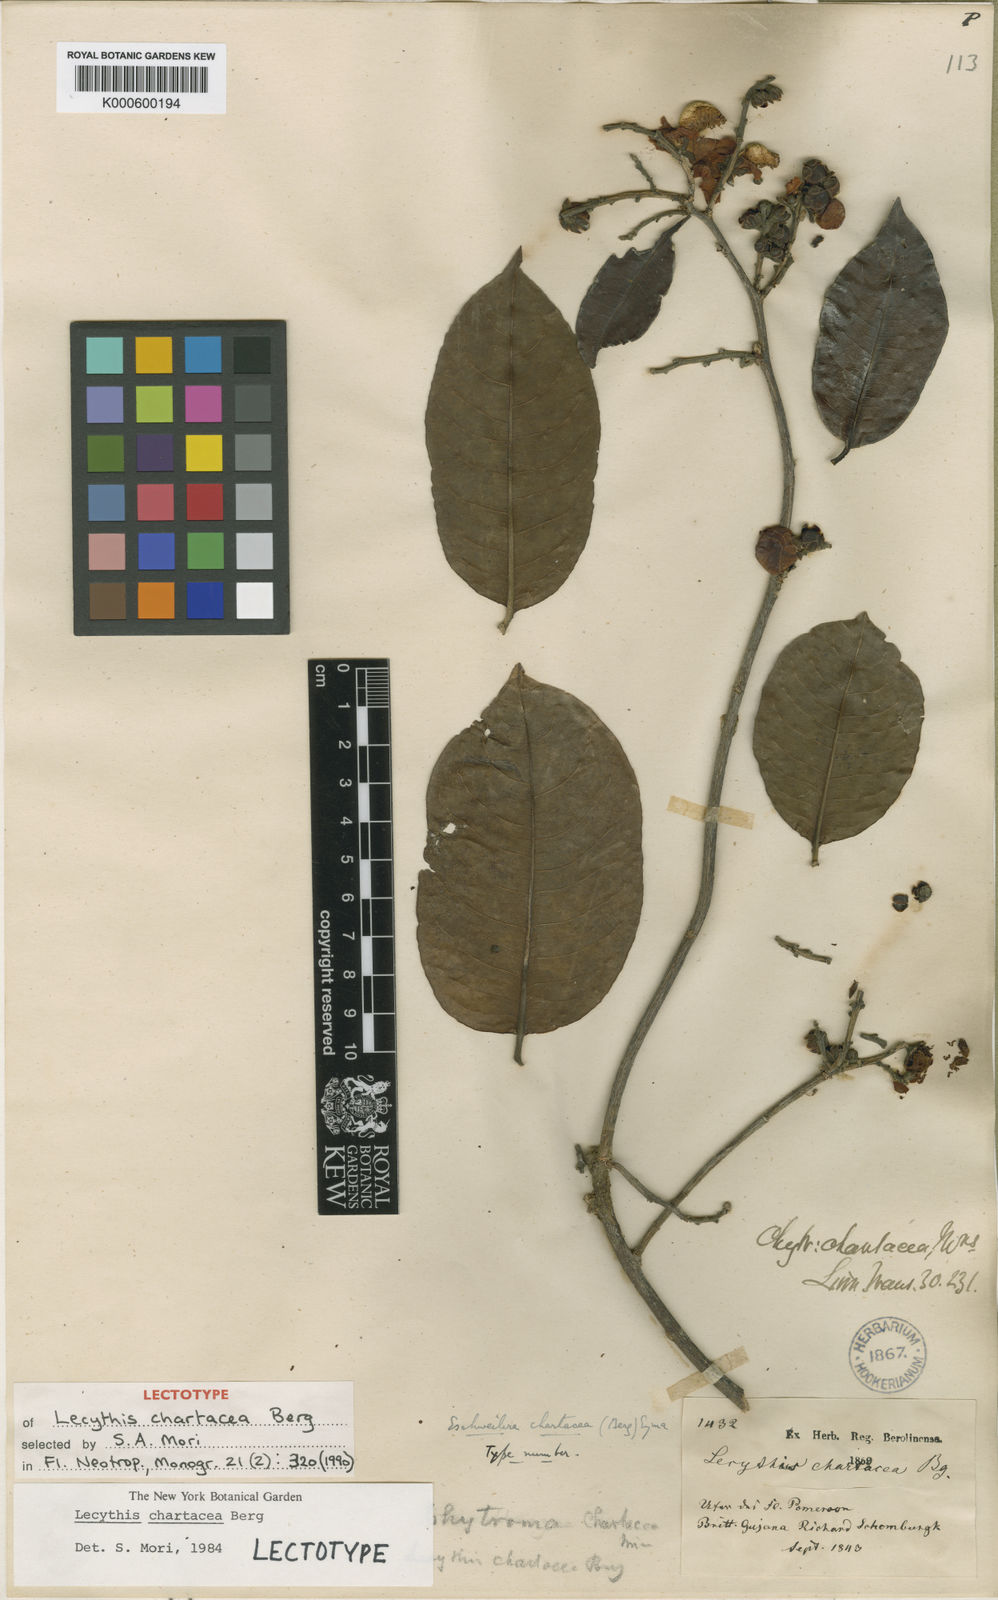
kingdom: Plantae
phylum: Tracheophyta
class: Magnoliopsida
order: Ericales
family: Lecythidaceae
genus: Lecythis
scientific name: Lecythis chartacea
